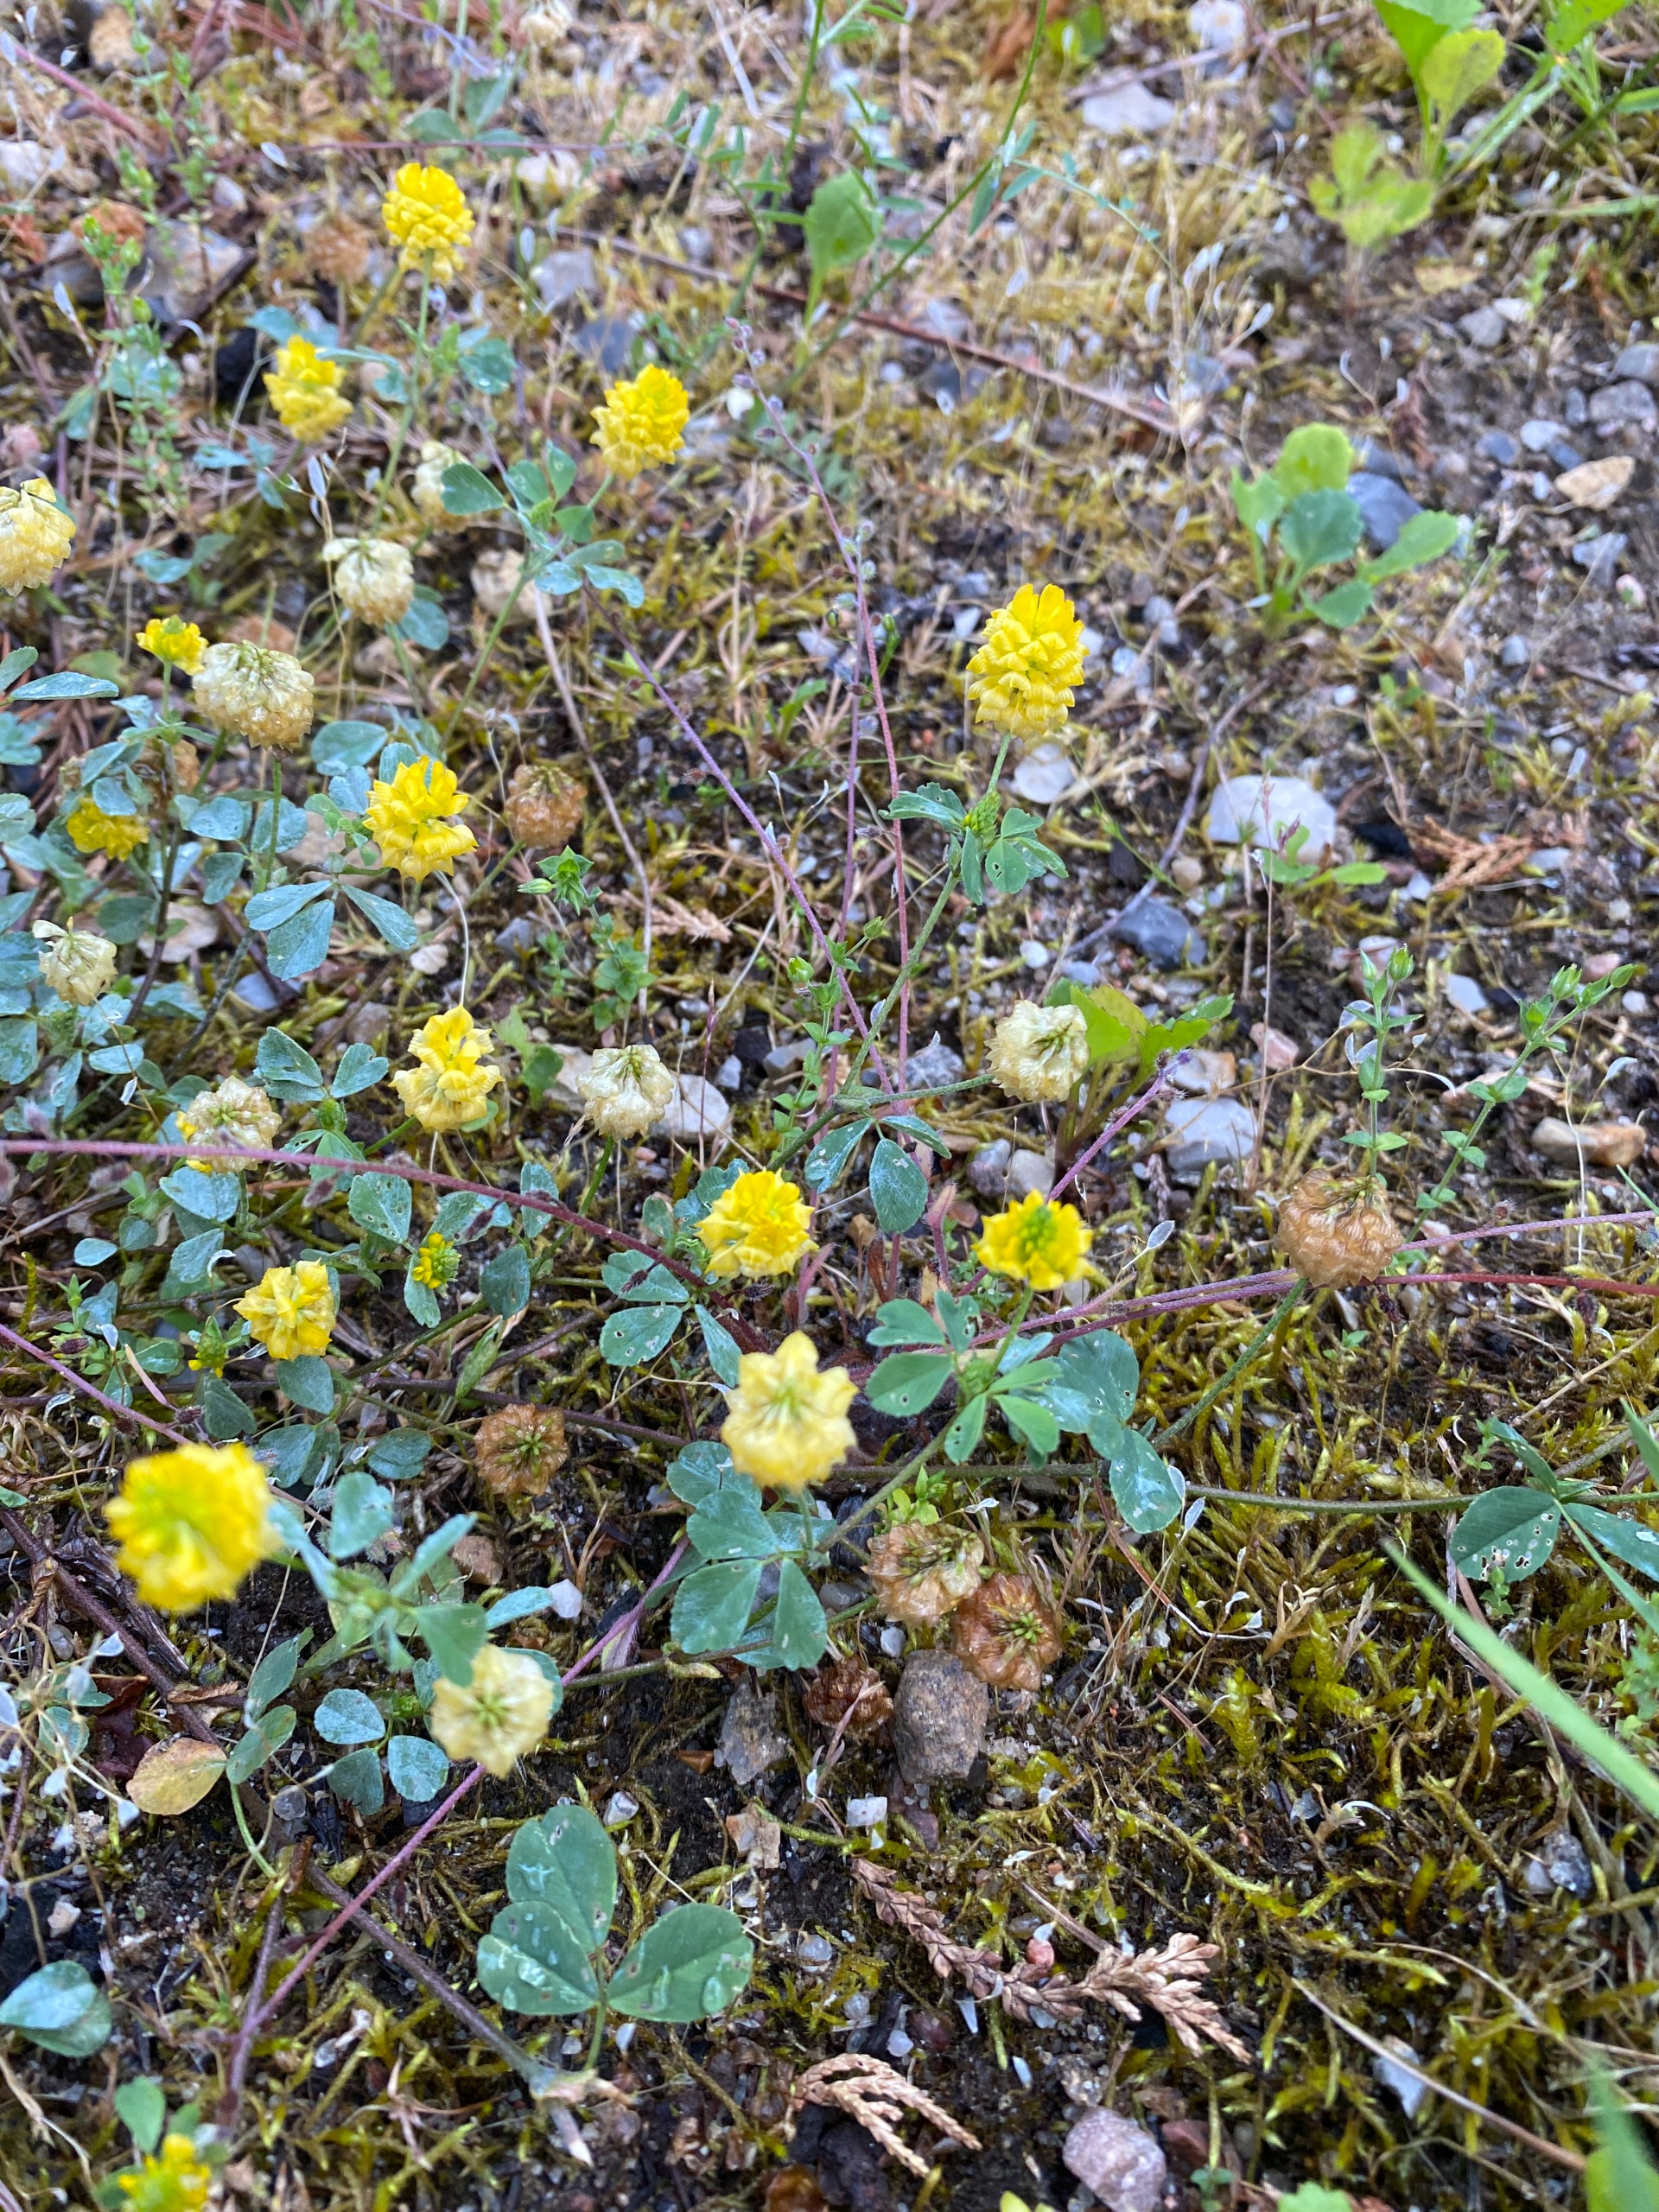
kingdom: Plantae
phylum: Tracheophyta
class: Magnoliopsida
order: Fabales
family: Fabaceae
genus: Trifolium
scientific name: Trifolium campestre
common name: Gul kløver
